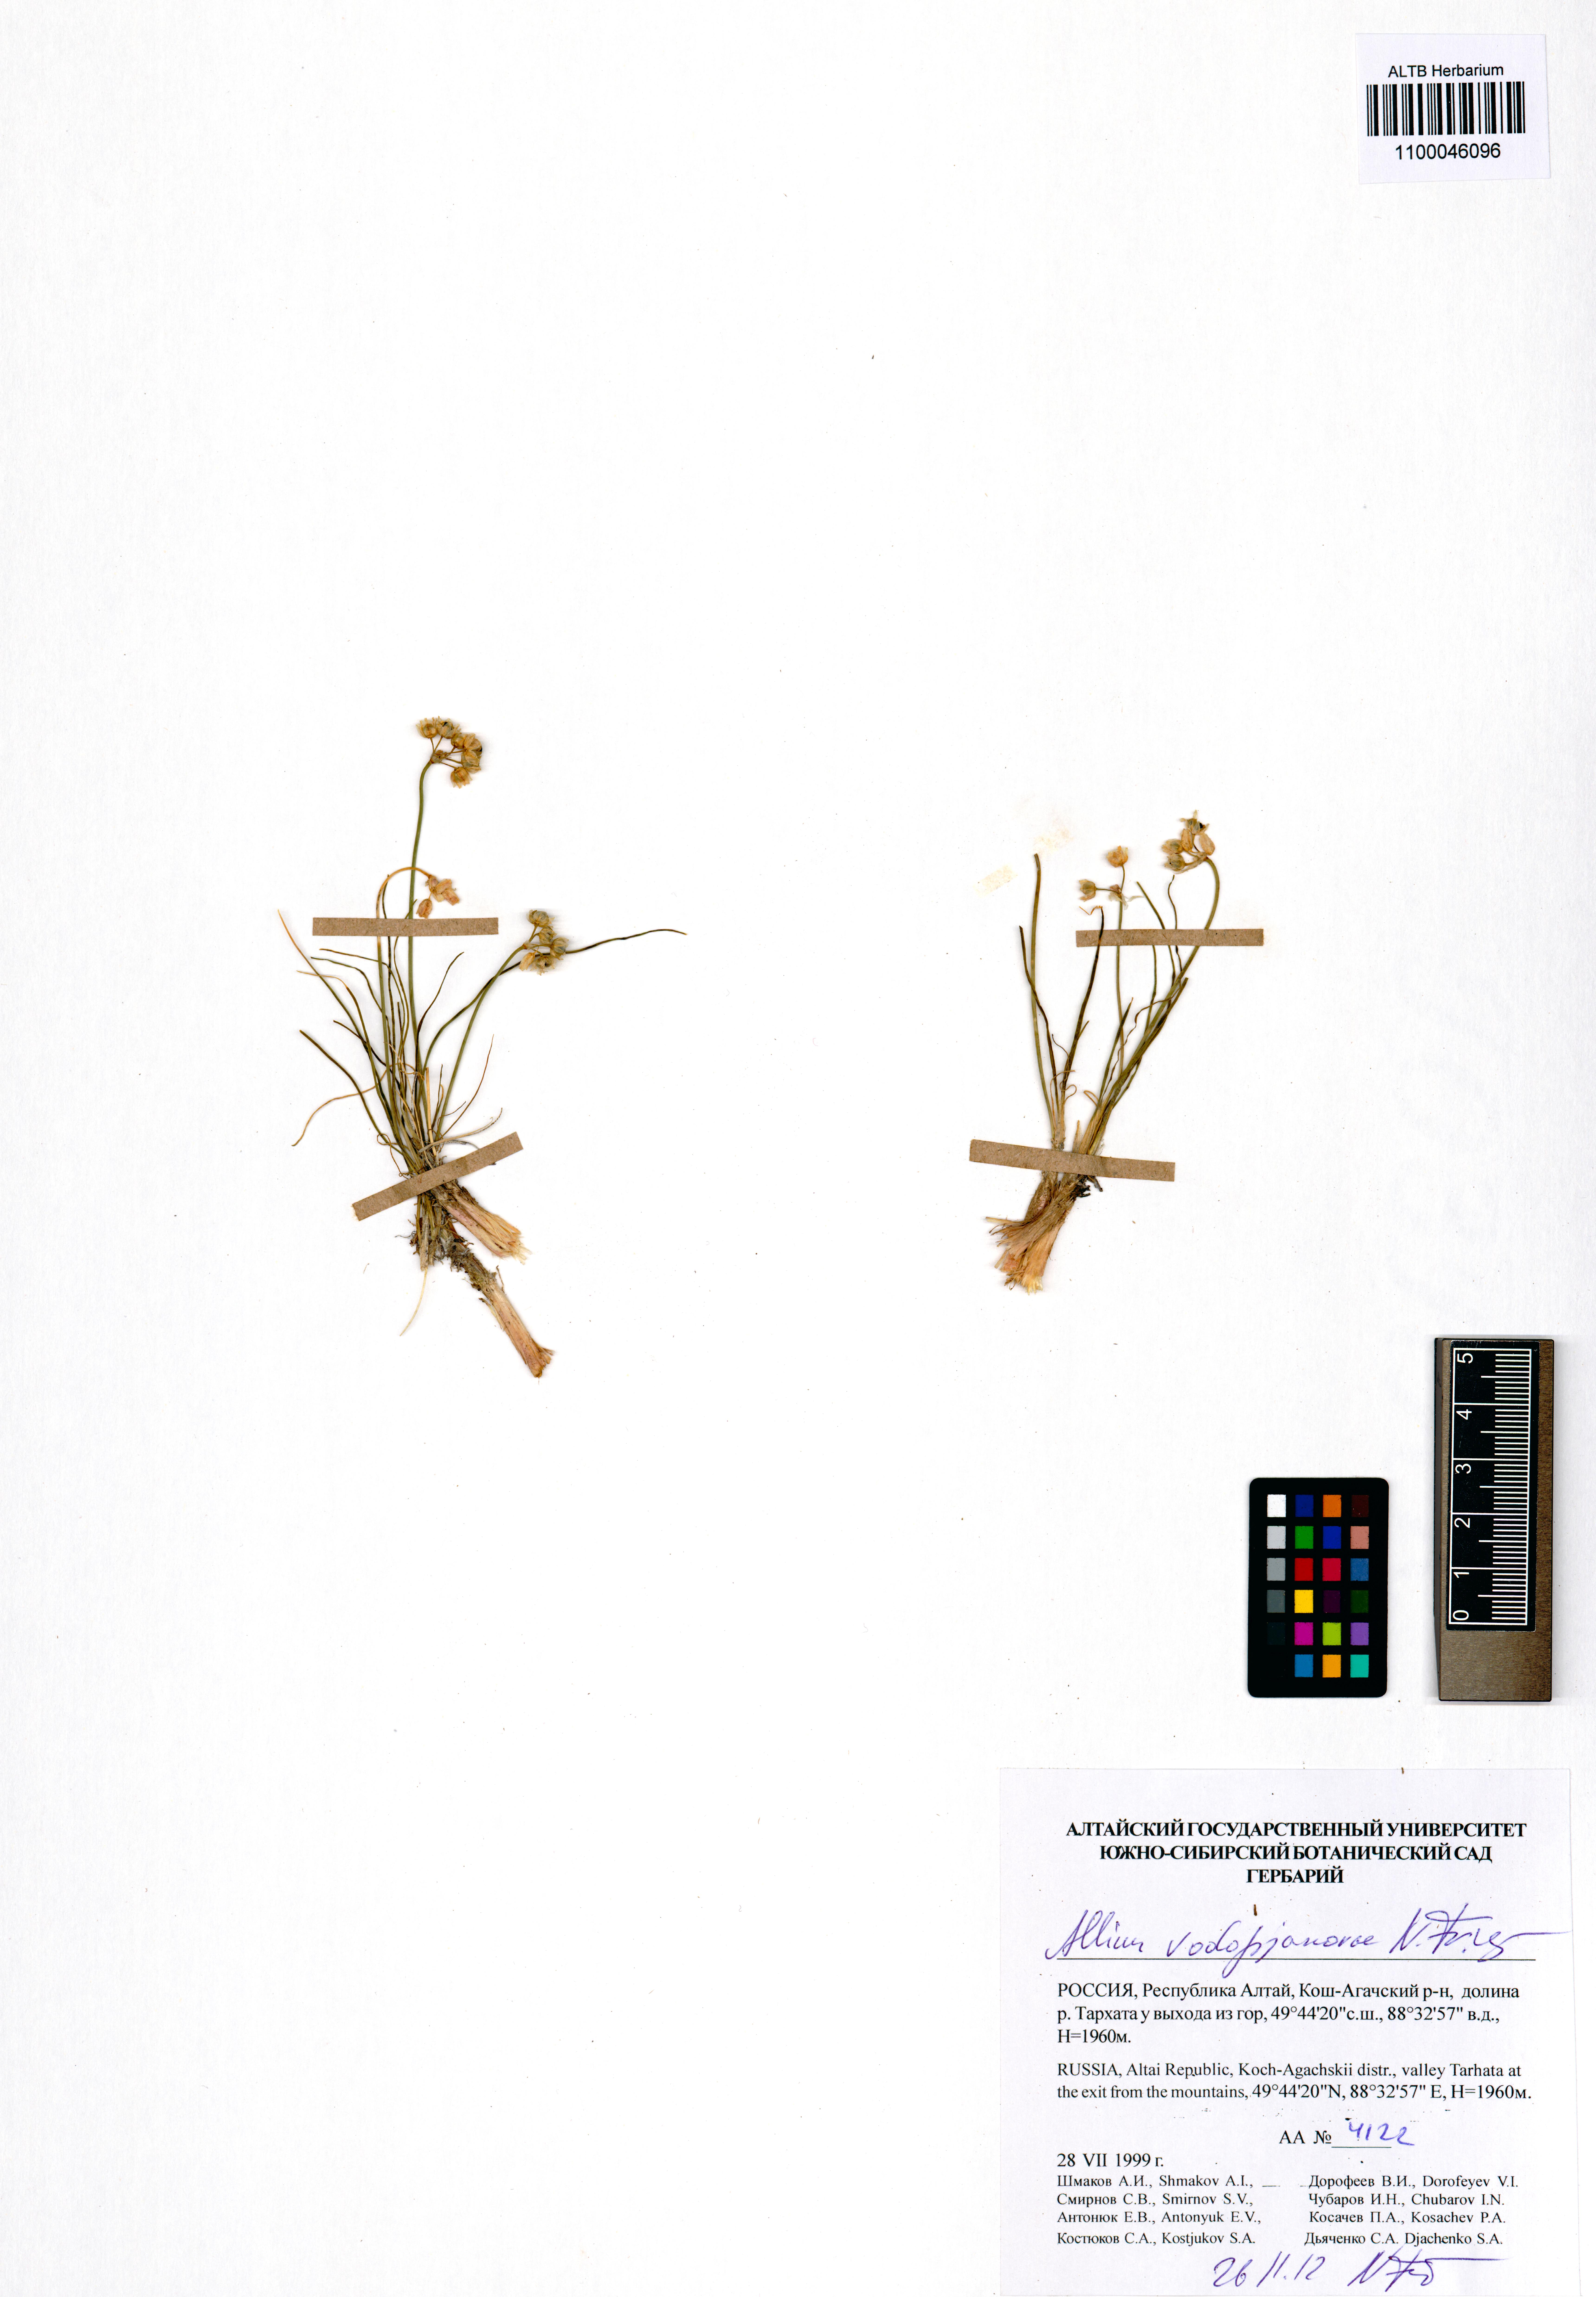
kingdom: Plantae
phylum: Tracheophyta
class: Liliopsida
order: Asparagales
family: Amaryllidaceae
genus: Allium
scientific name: Allium vodopjanovae
